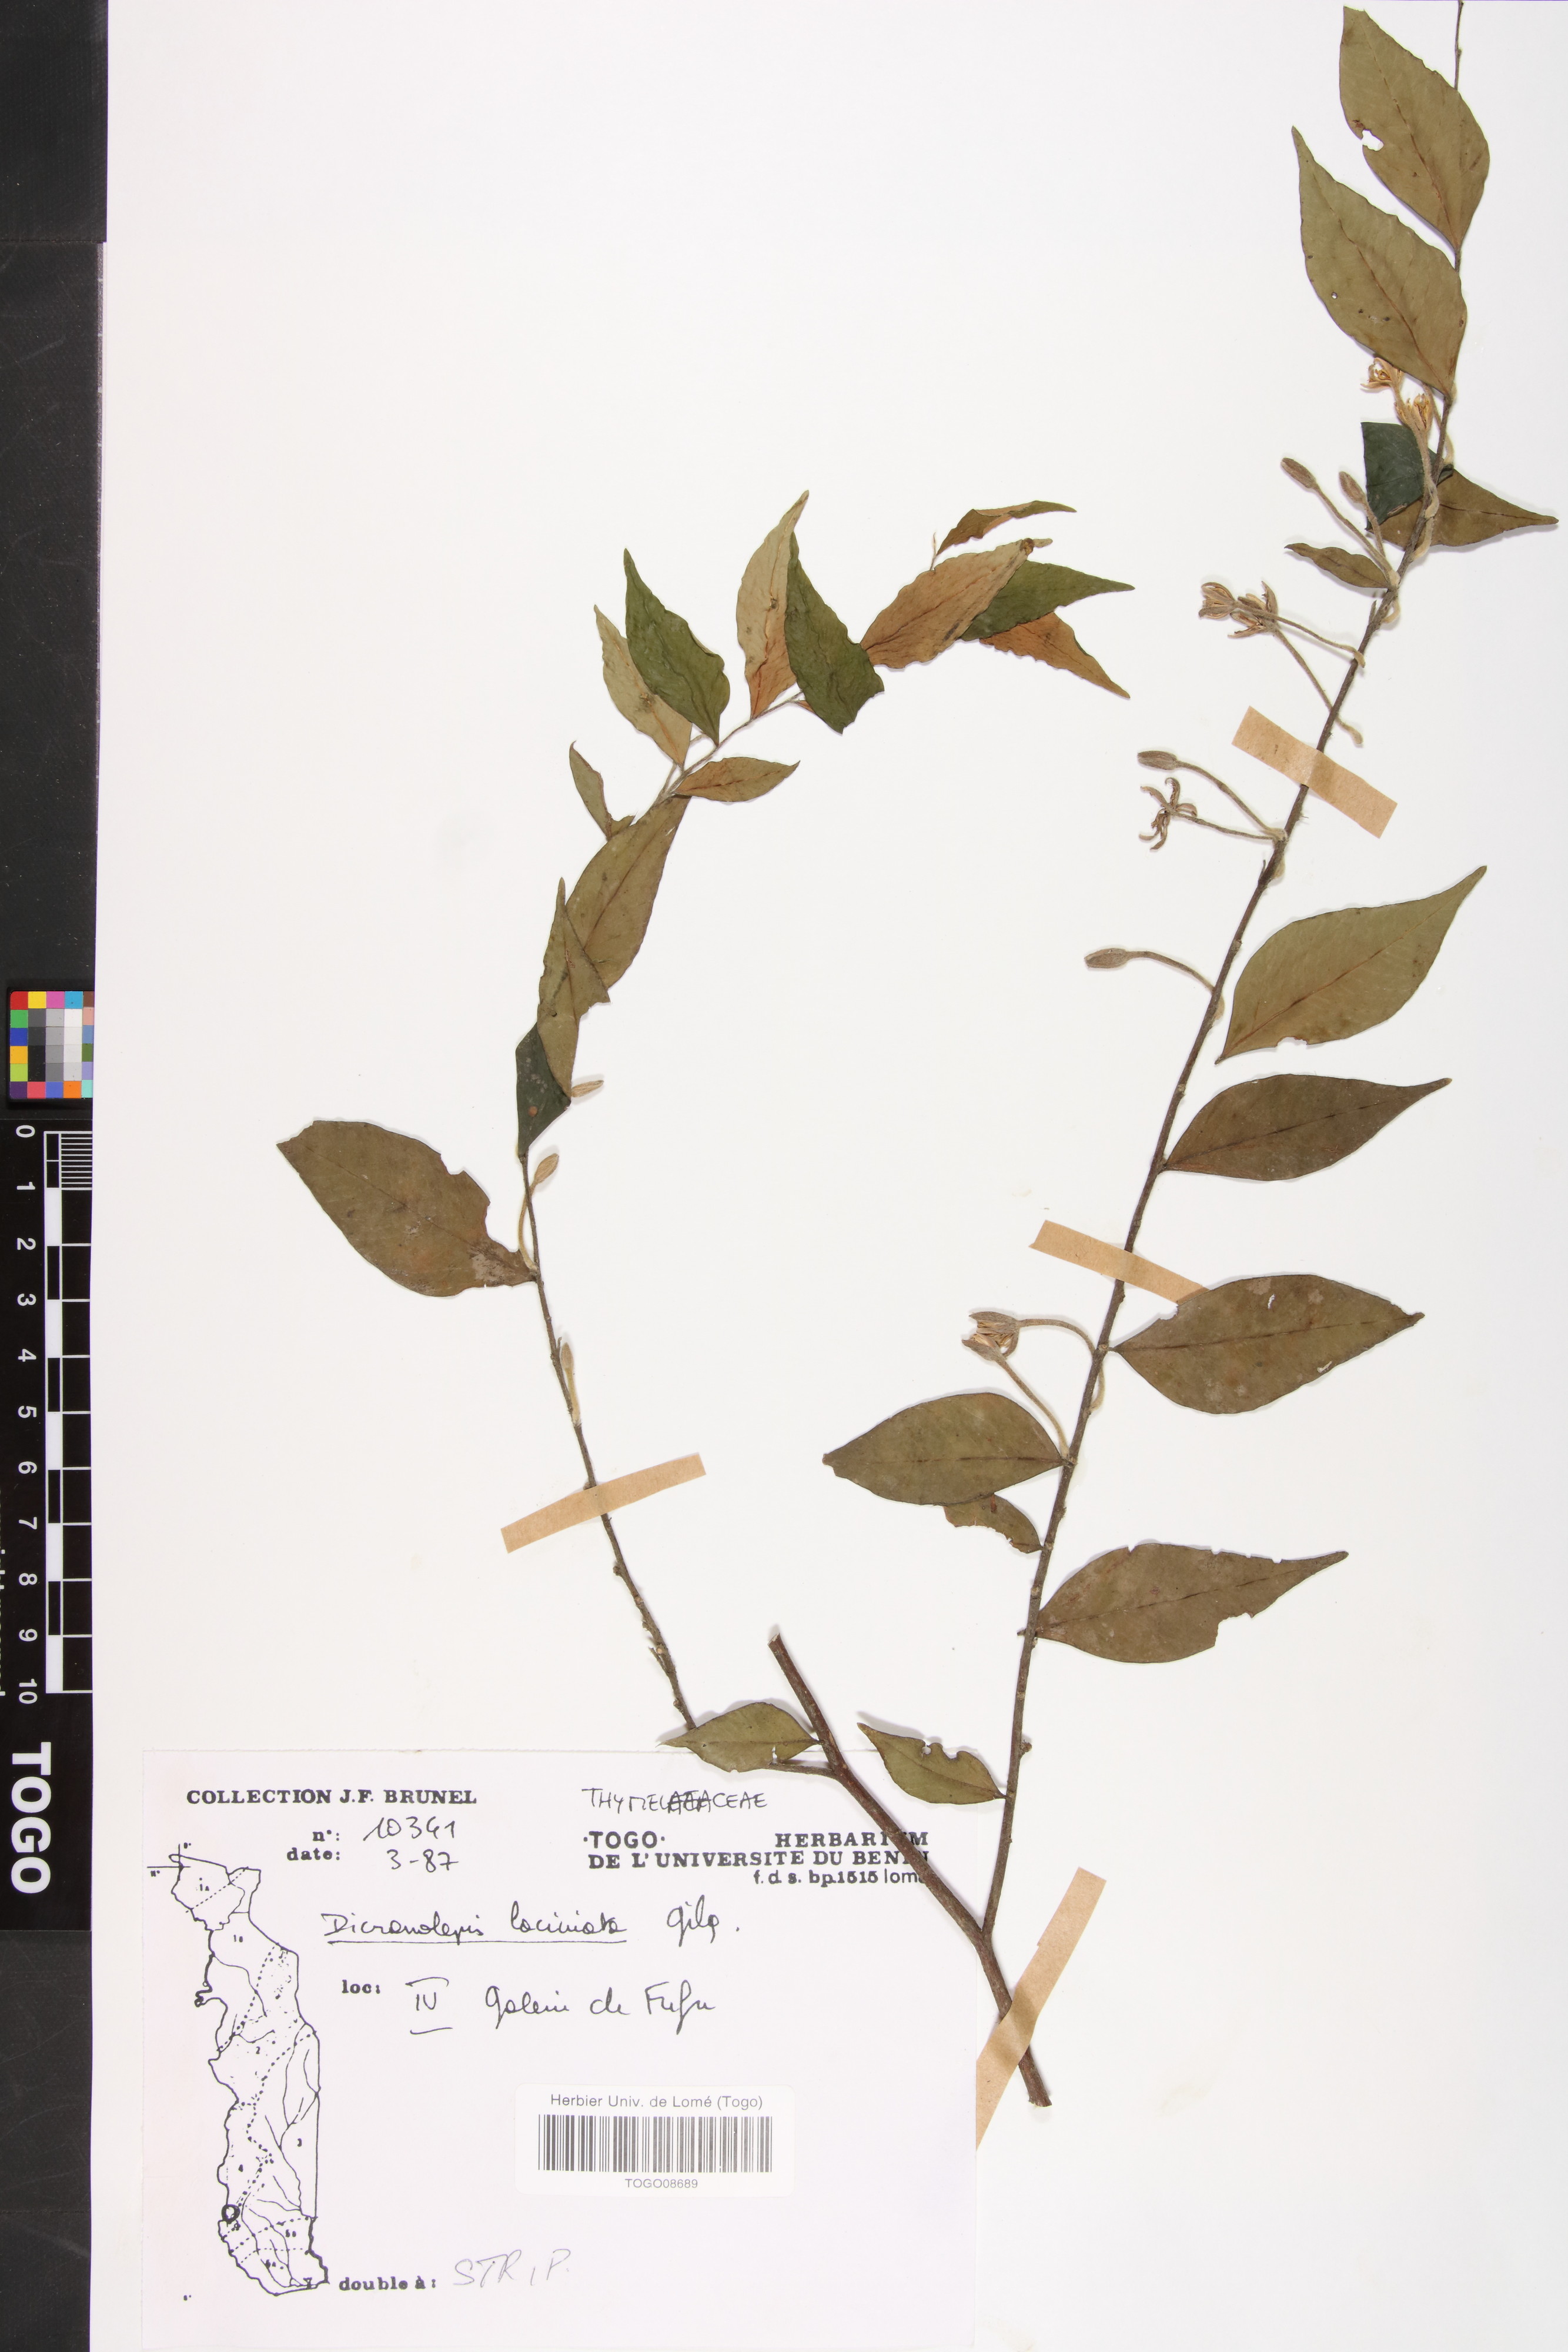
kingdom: Plantae
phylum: Tracheophyta
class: Magnoliopsida
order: Malvales
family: Thymelaeaceae
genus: Dicranolepis
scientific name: Dicranolepis laciniata
